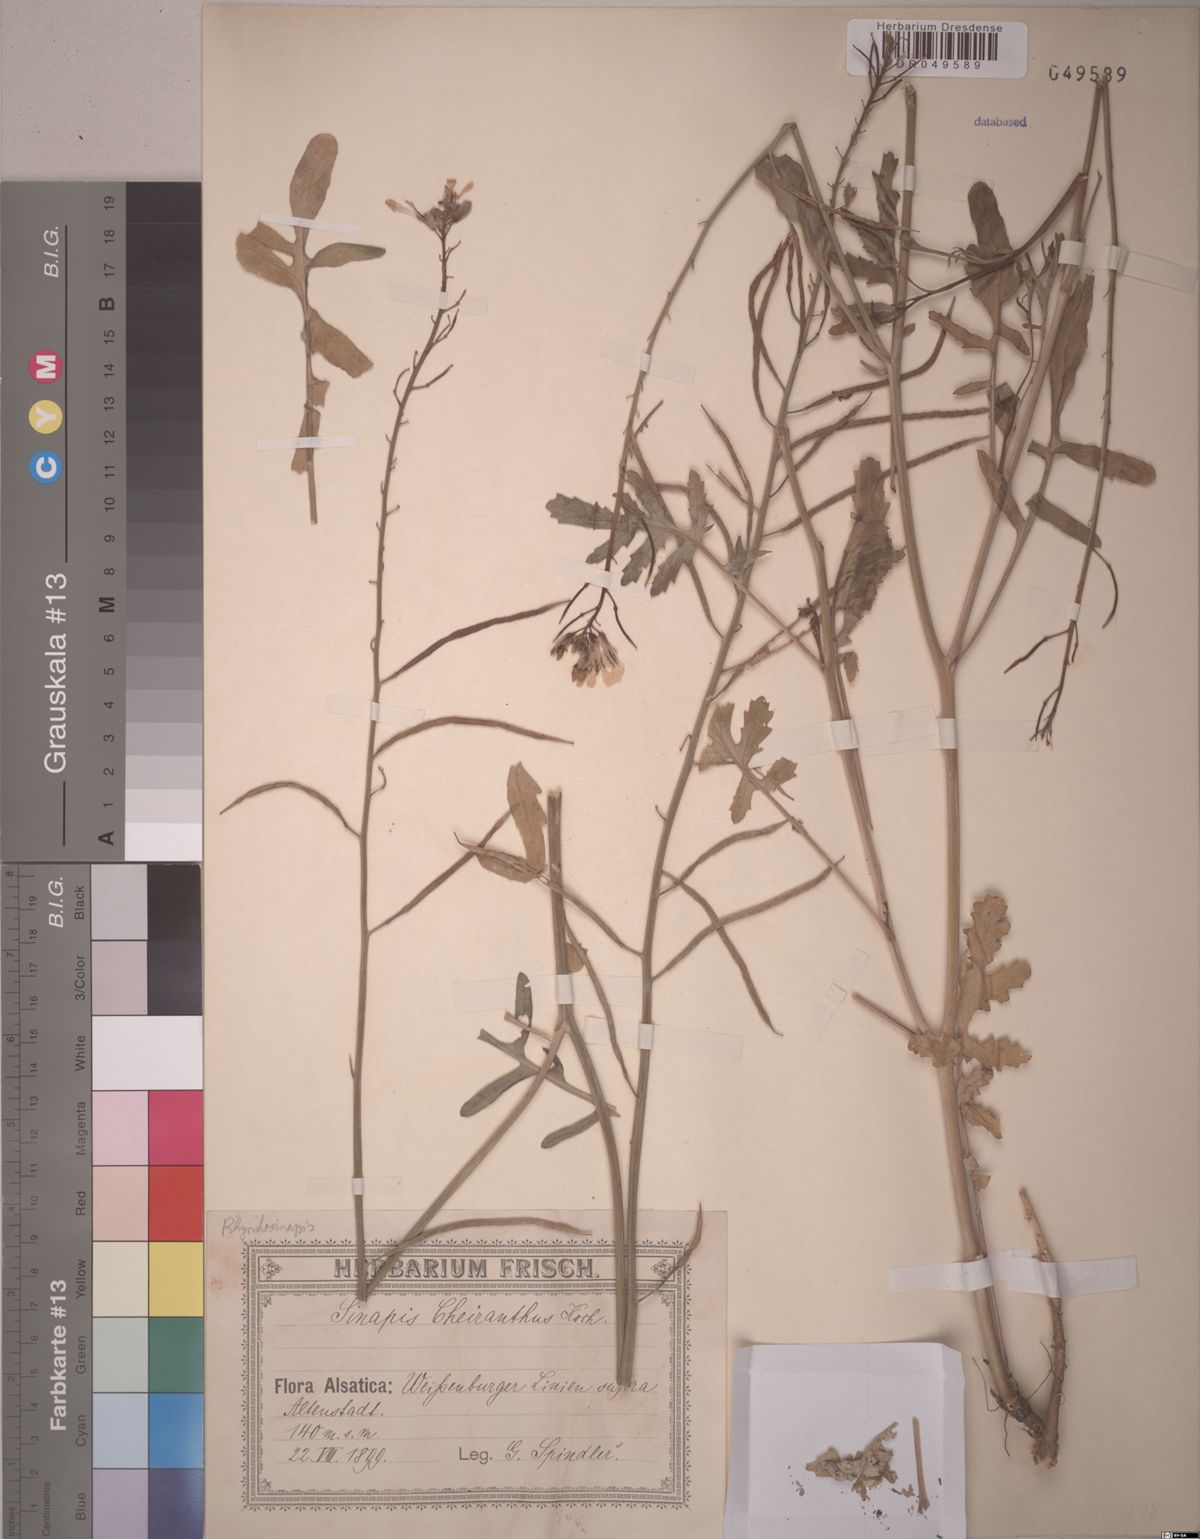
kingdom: Plantae
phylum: Tracheophyta
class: Magnoliopsida
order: Brassicales
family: Brassicaceae
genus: Coincya
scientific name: Coincya monensis
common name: Star-mustard
